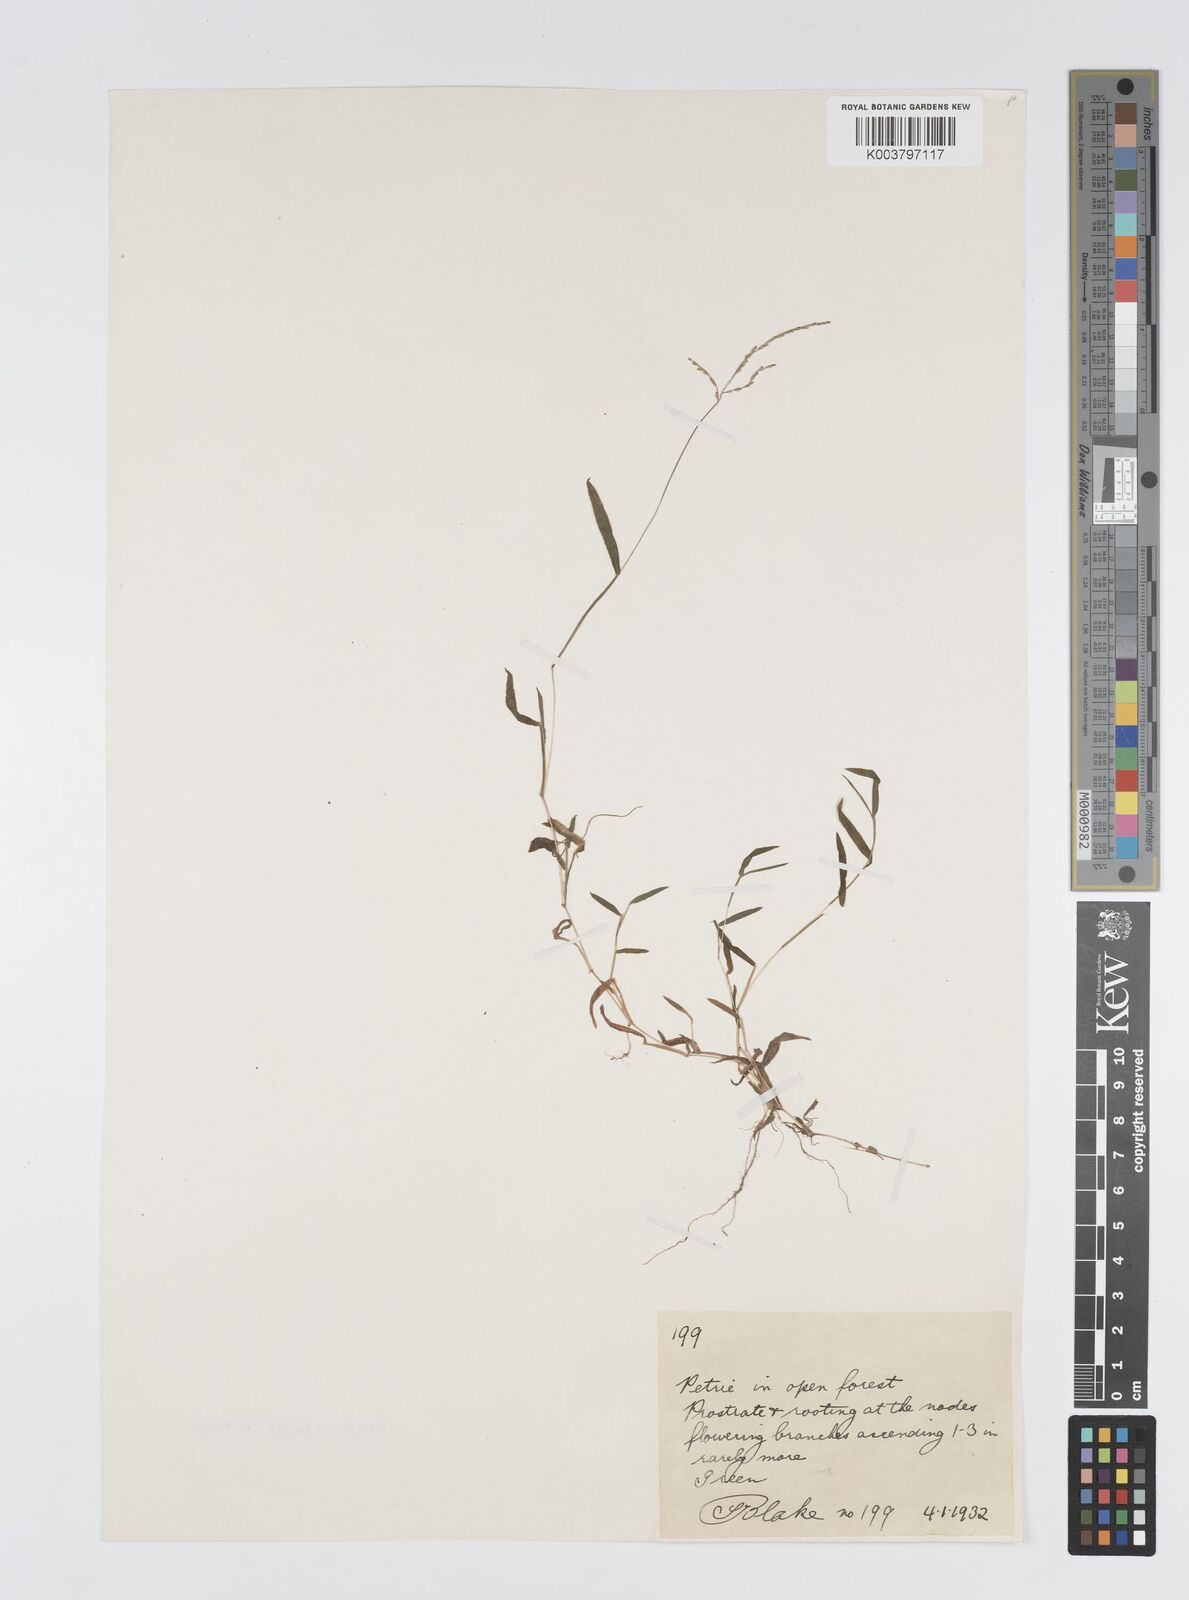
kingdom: Plantae
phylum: Tracheophyta
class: Liliopsida
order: Poales
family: Poaceae
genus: Digitaria
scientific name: Digitaria diffusa
